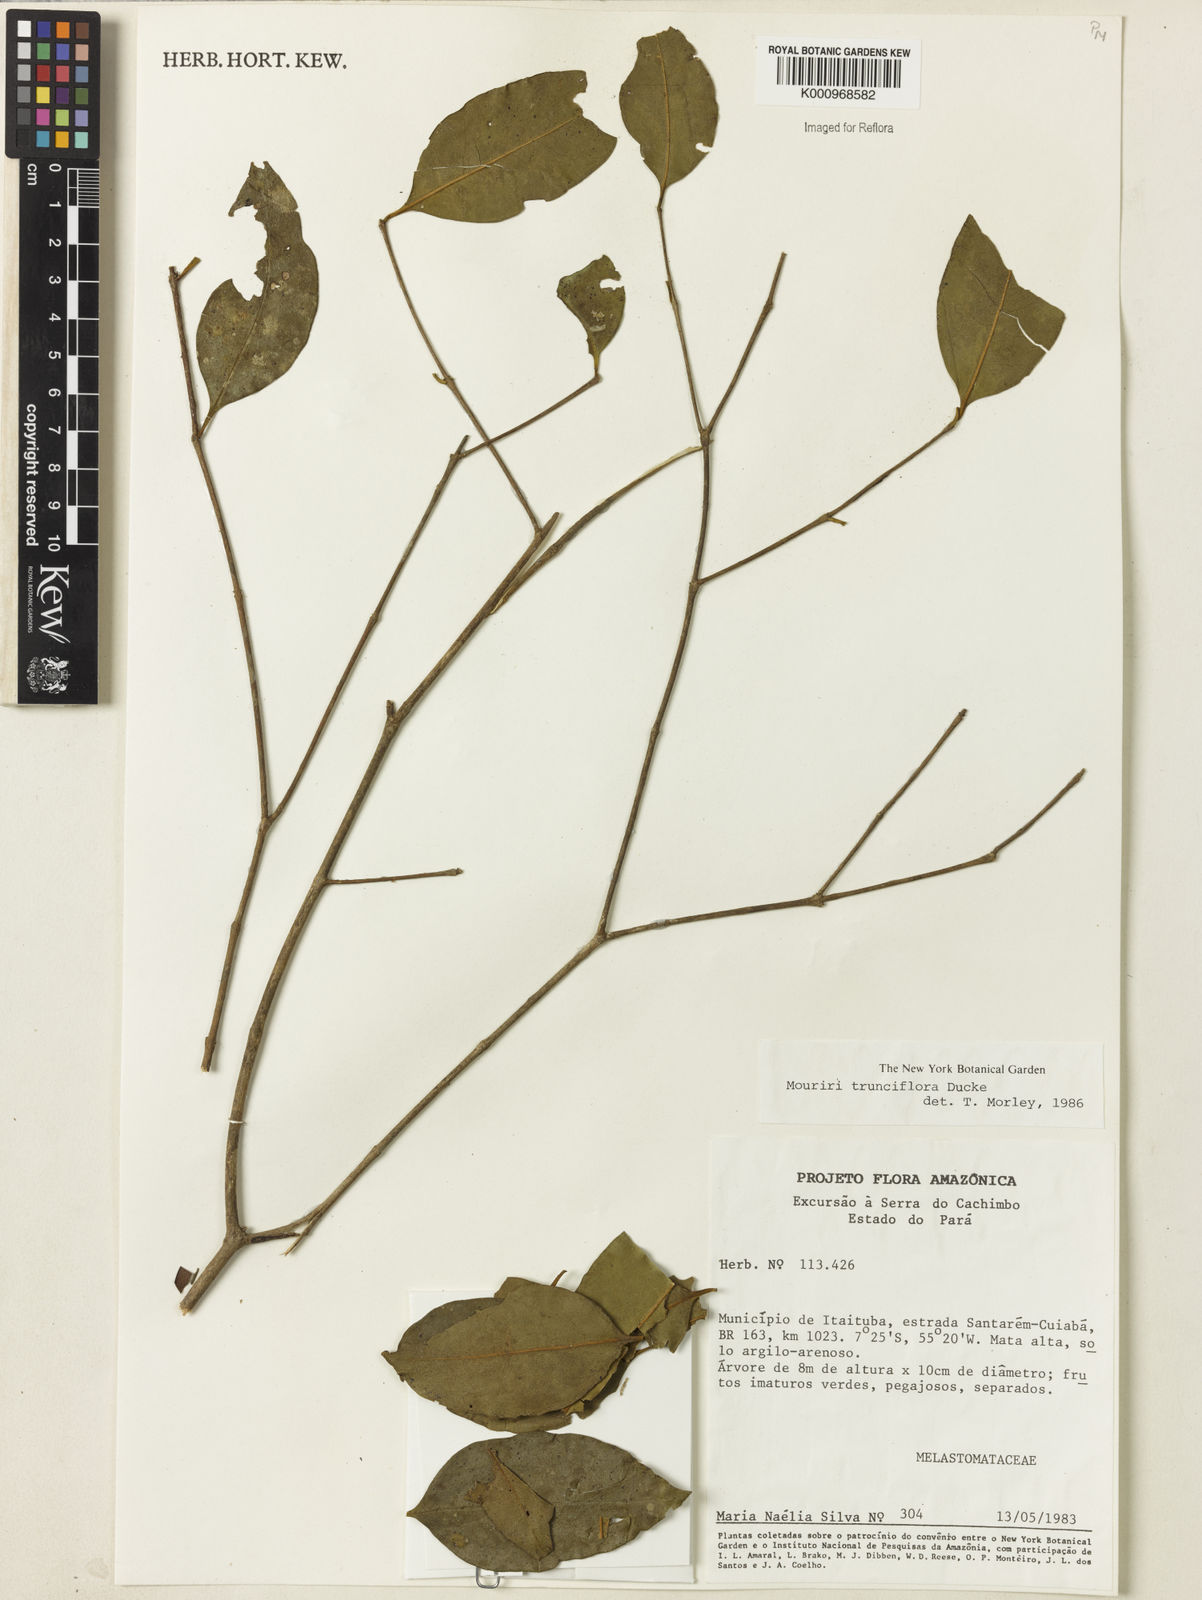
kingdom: Plantae
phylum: Tracheophyta
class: Magnoliopsida
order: Myrtales
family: Melastomataceae
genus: Mouriri
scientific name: Mouriri trunciflora
